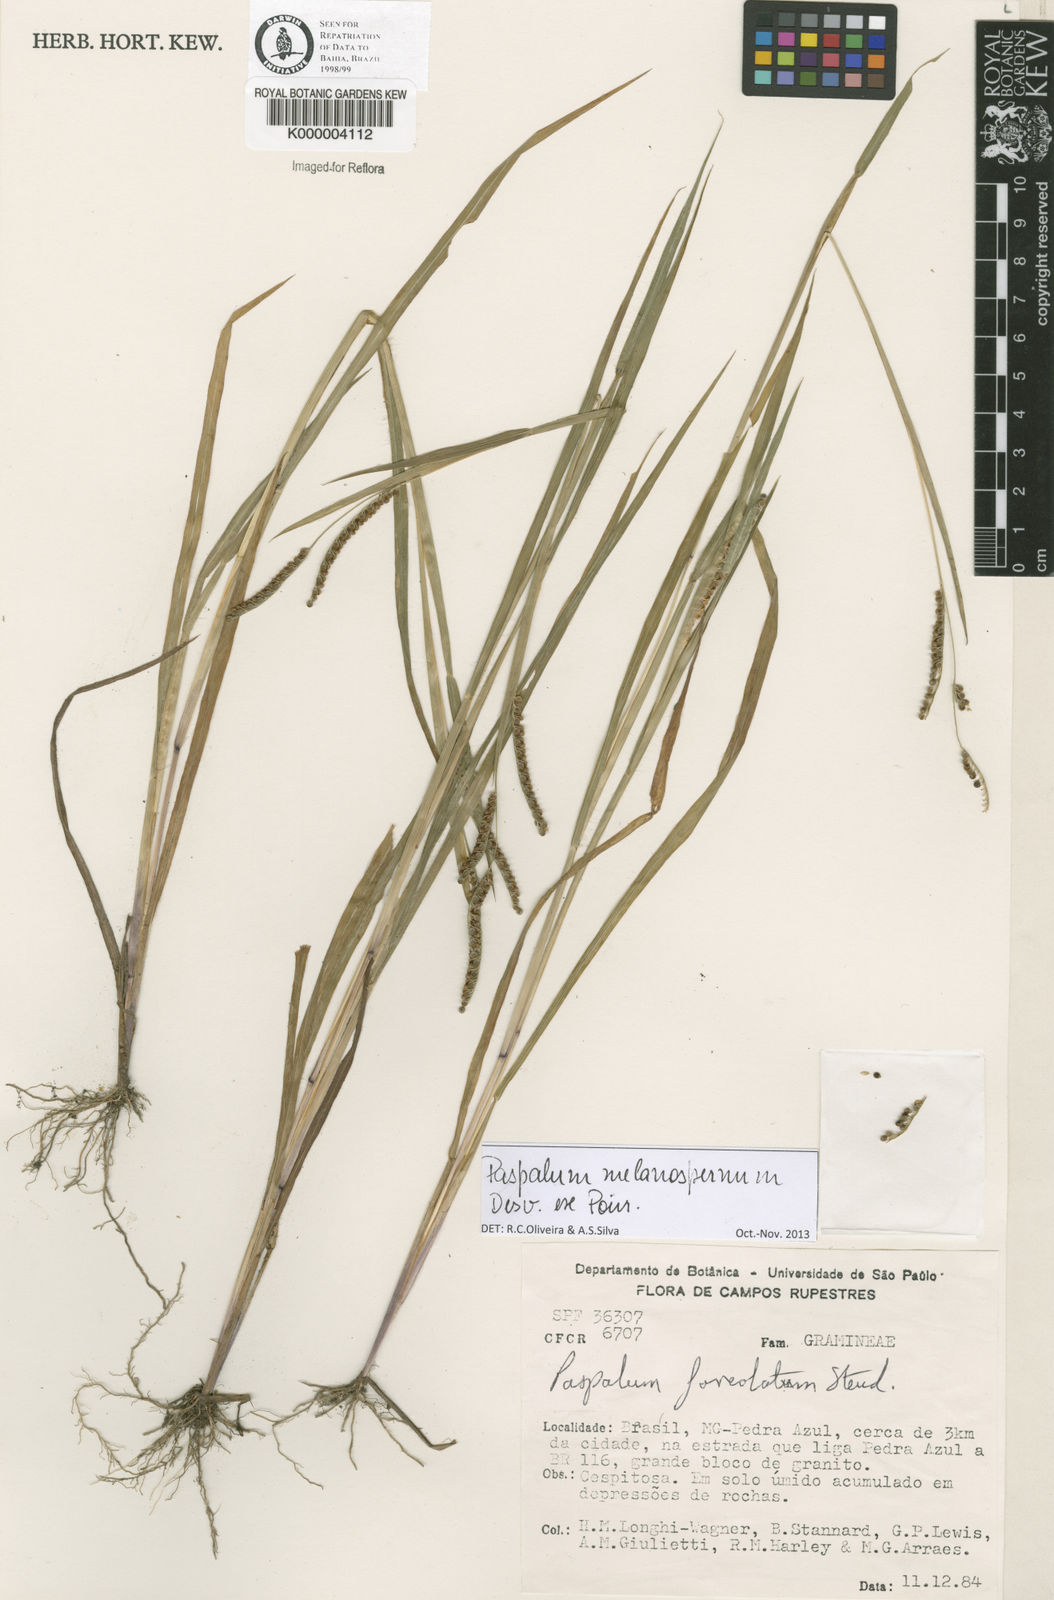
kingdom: Plantae
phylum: Tracheophyta
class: Liliopsida
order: Poales
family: Poaceae
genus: Paspalum
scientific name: Paspalum melanospermum
